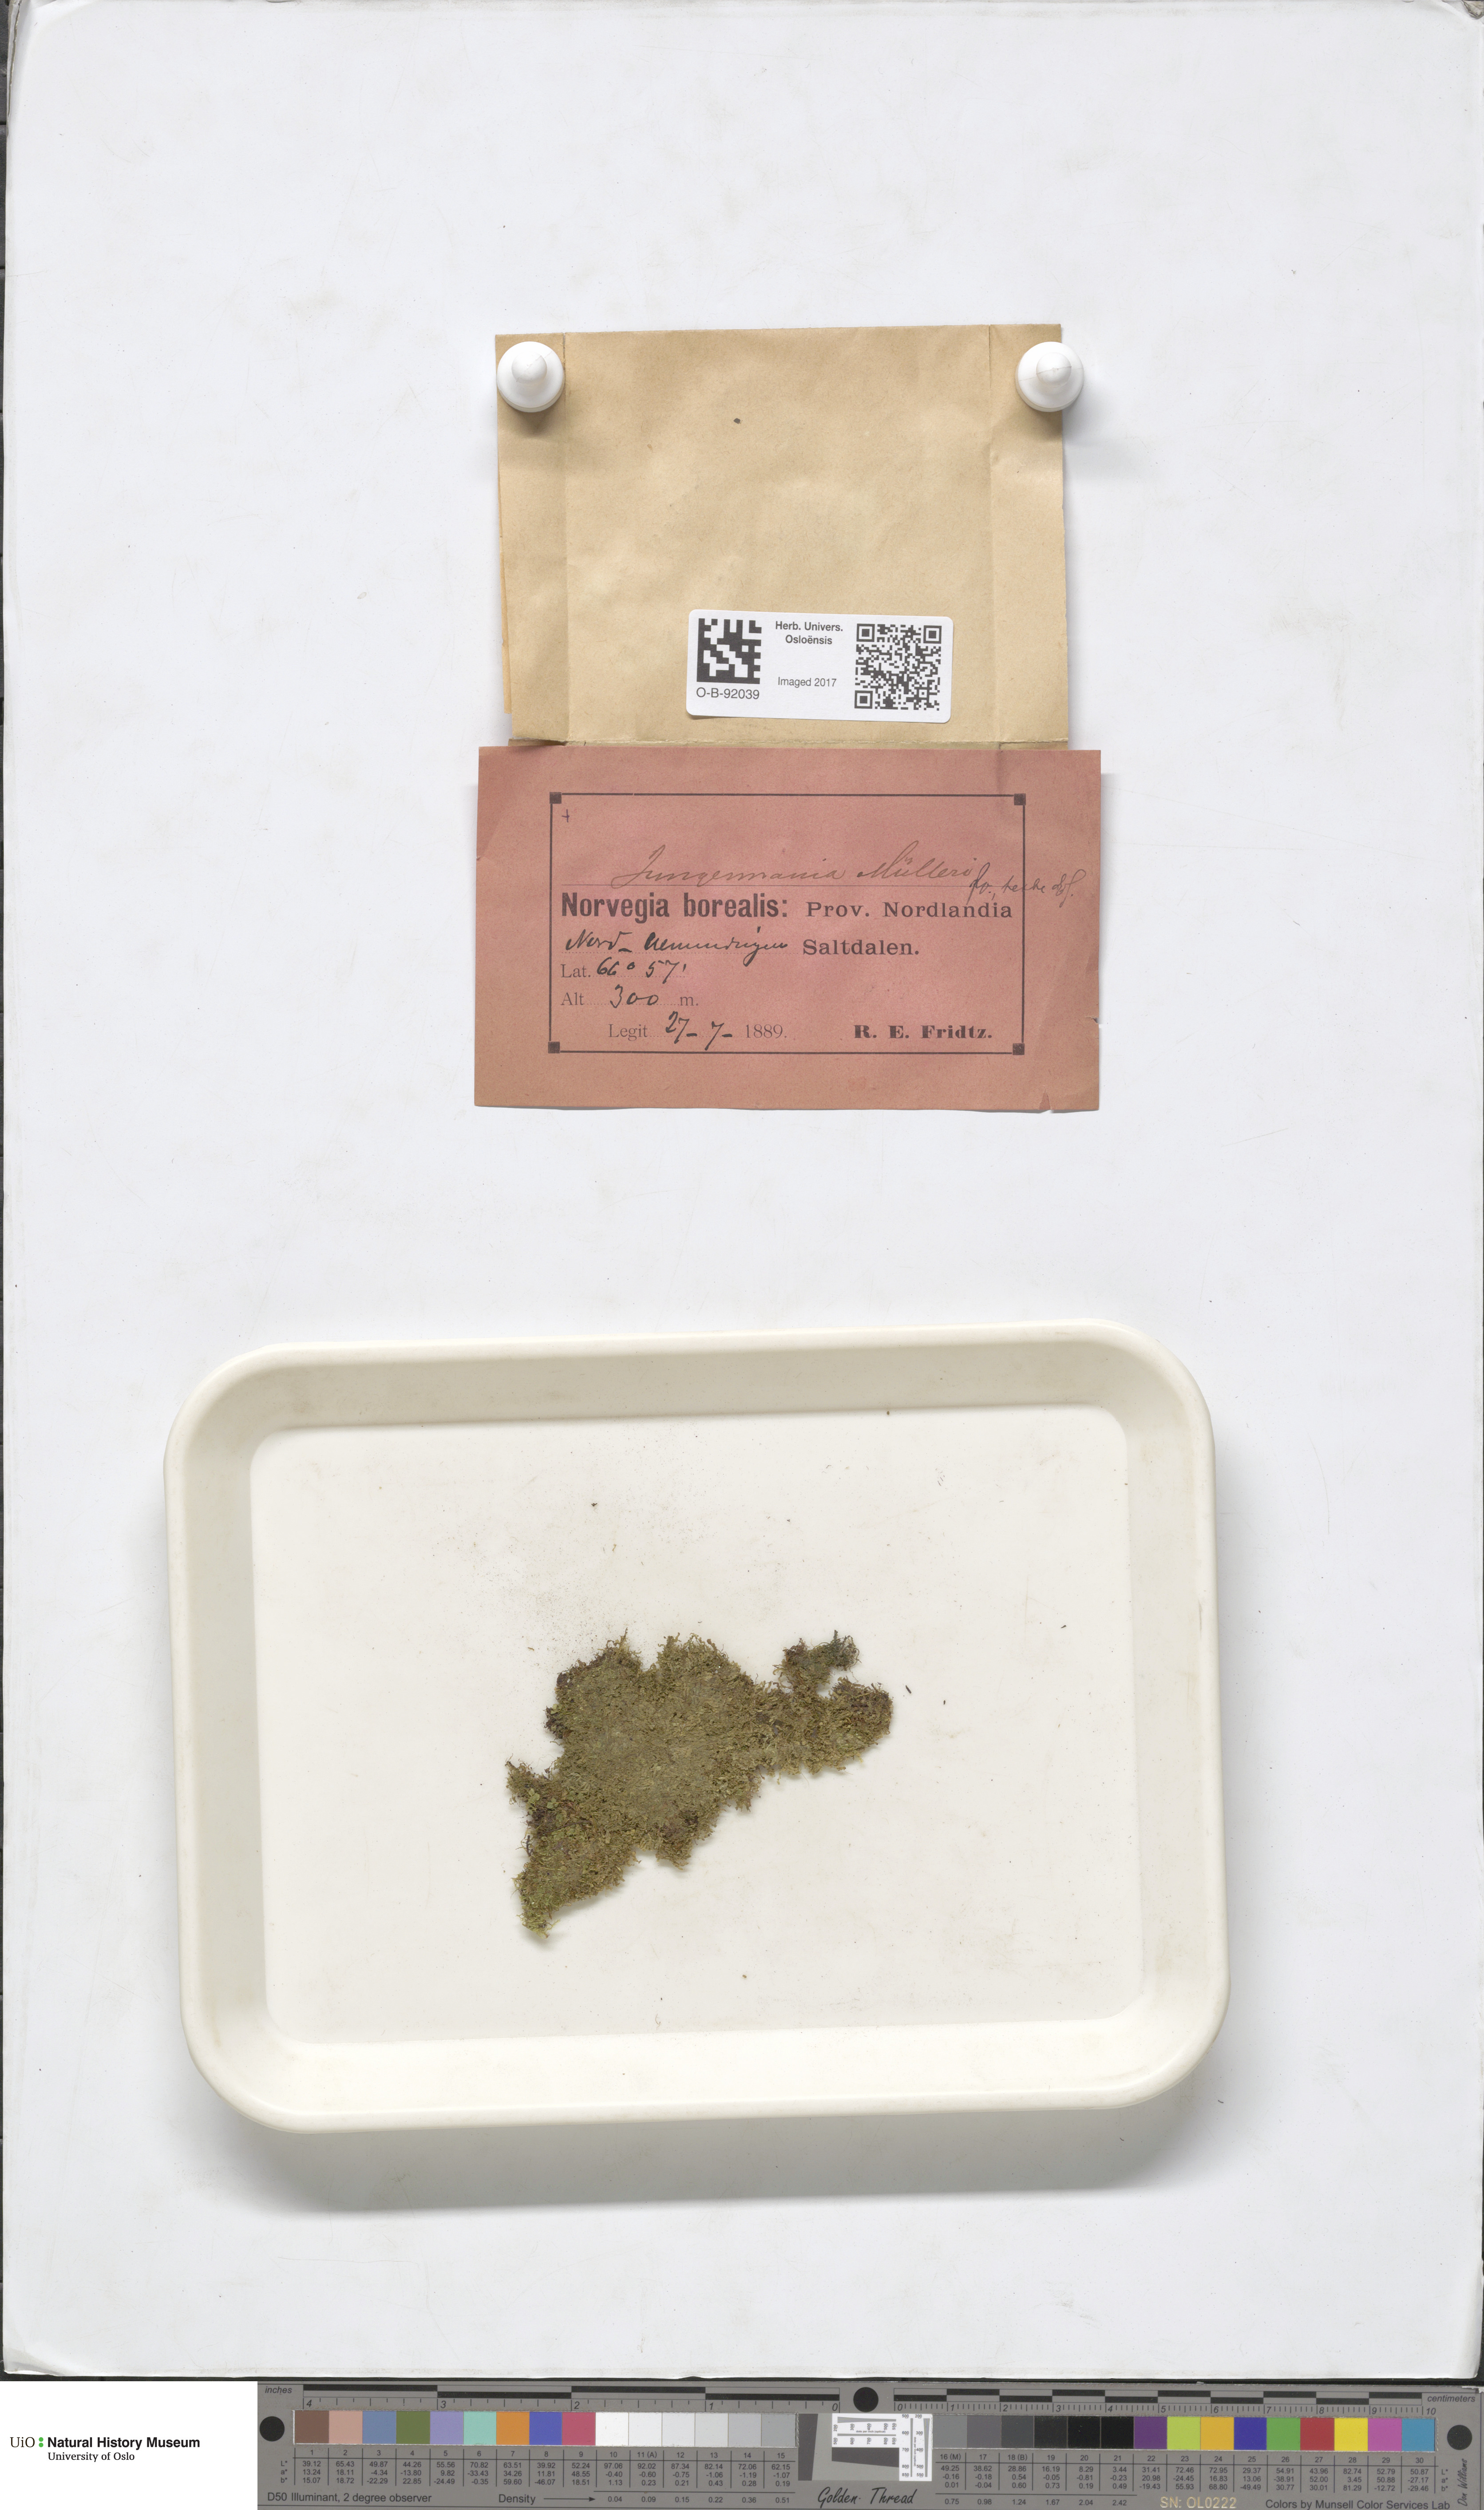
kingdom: Plantae
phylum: Marchantiophyta
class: Jungermanniopsida
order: Jungermanniales
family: Jungermanniaceae
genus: Mesoptychia
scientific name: Mesoptychia collaris
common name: Collared notchwort
